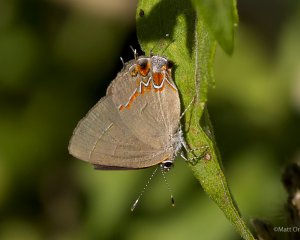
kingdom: Animalia
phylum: Arthropoda
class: Insecta
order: Lepidoptera
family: Lycaenidae
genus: Calycopis
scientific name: Calycopis isobeon
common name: Dusky-blue Groundstreak
